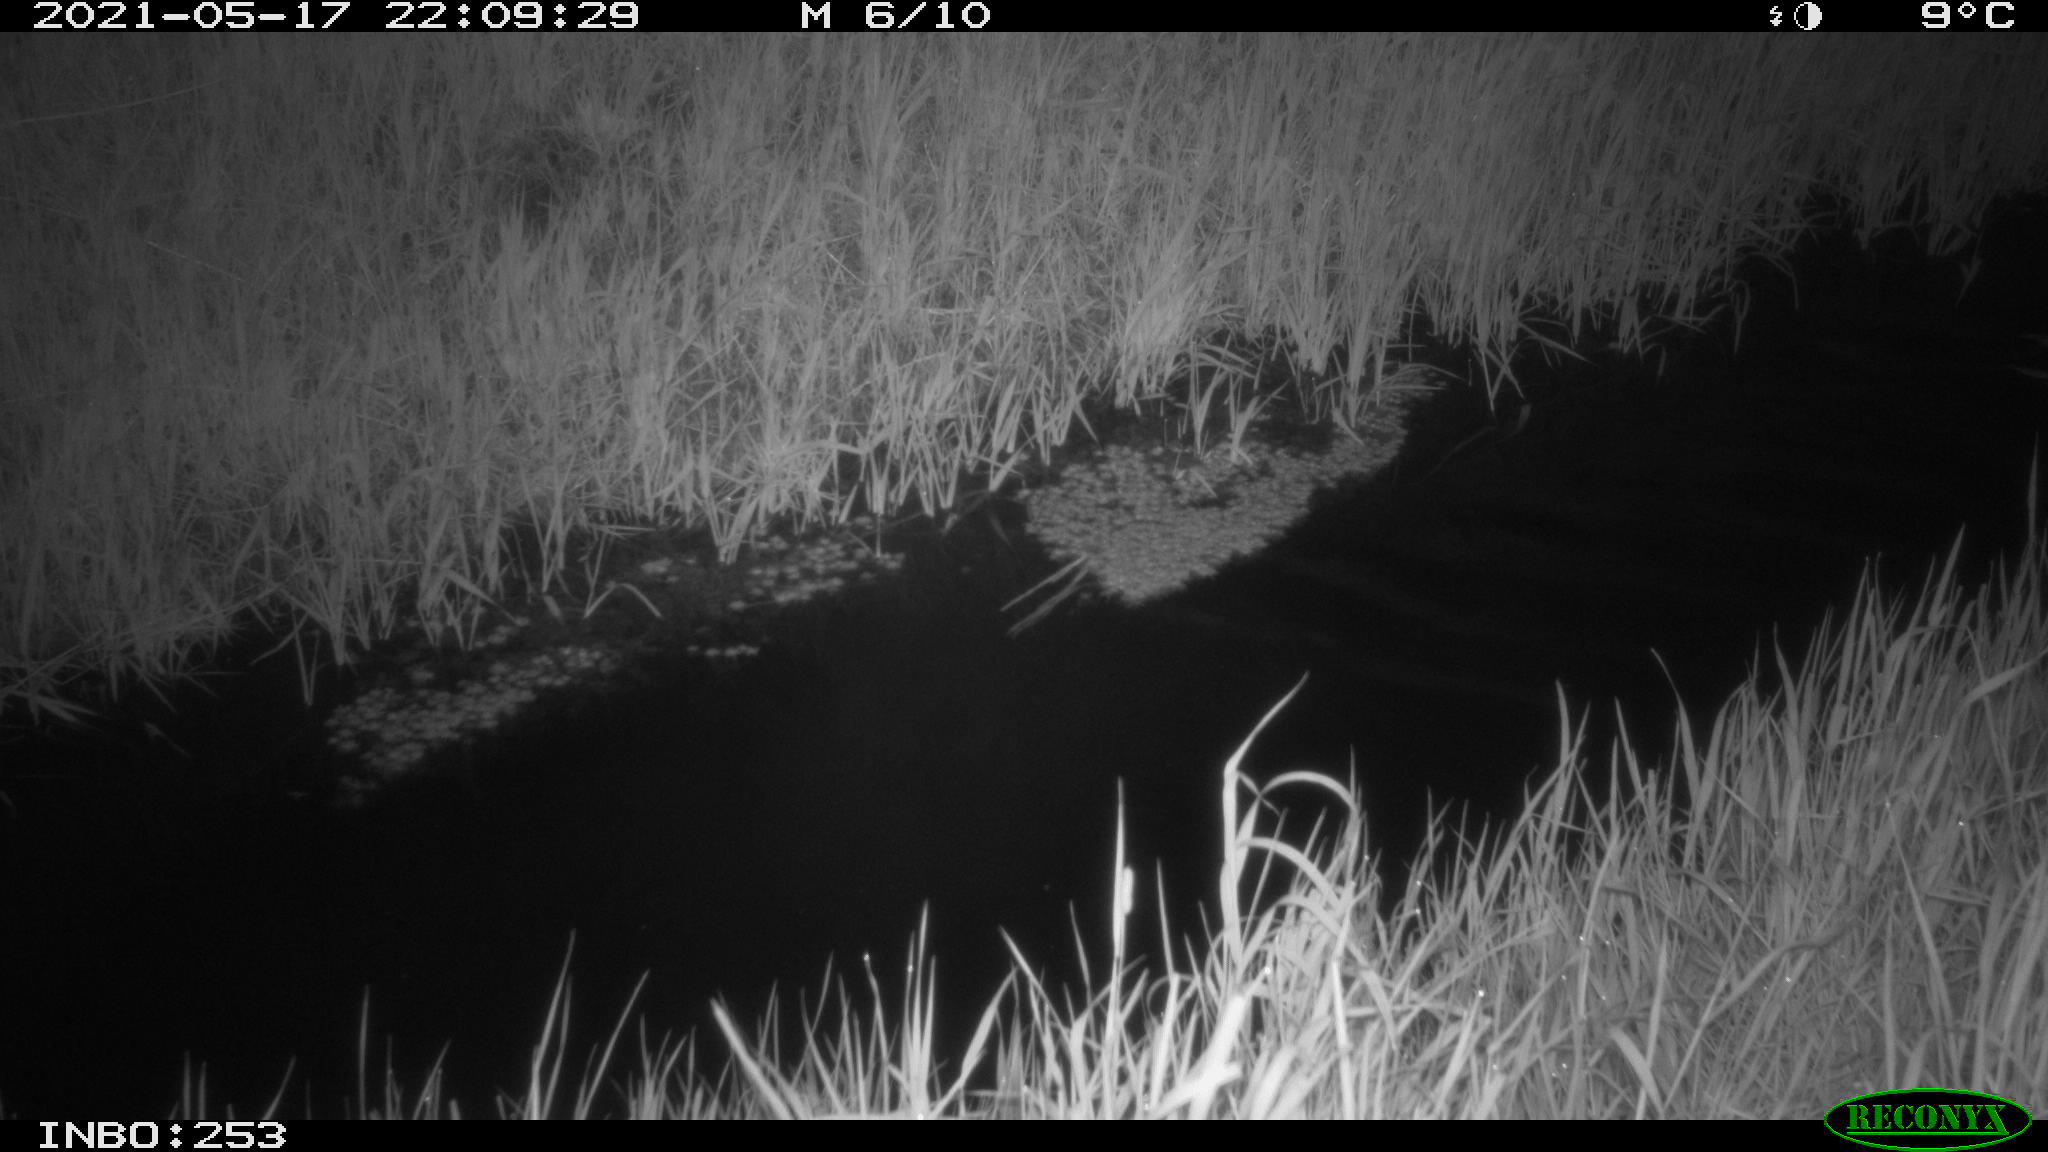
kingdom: Animalia
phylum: Chordata
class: Aves
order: Anseriformes
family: Anatidae
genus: Anas
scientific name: Anas platyrhynchos
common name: Mallard
